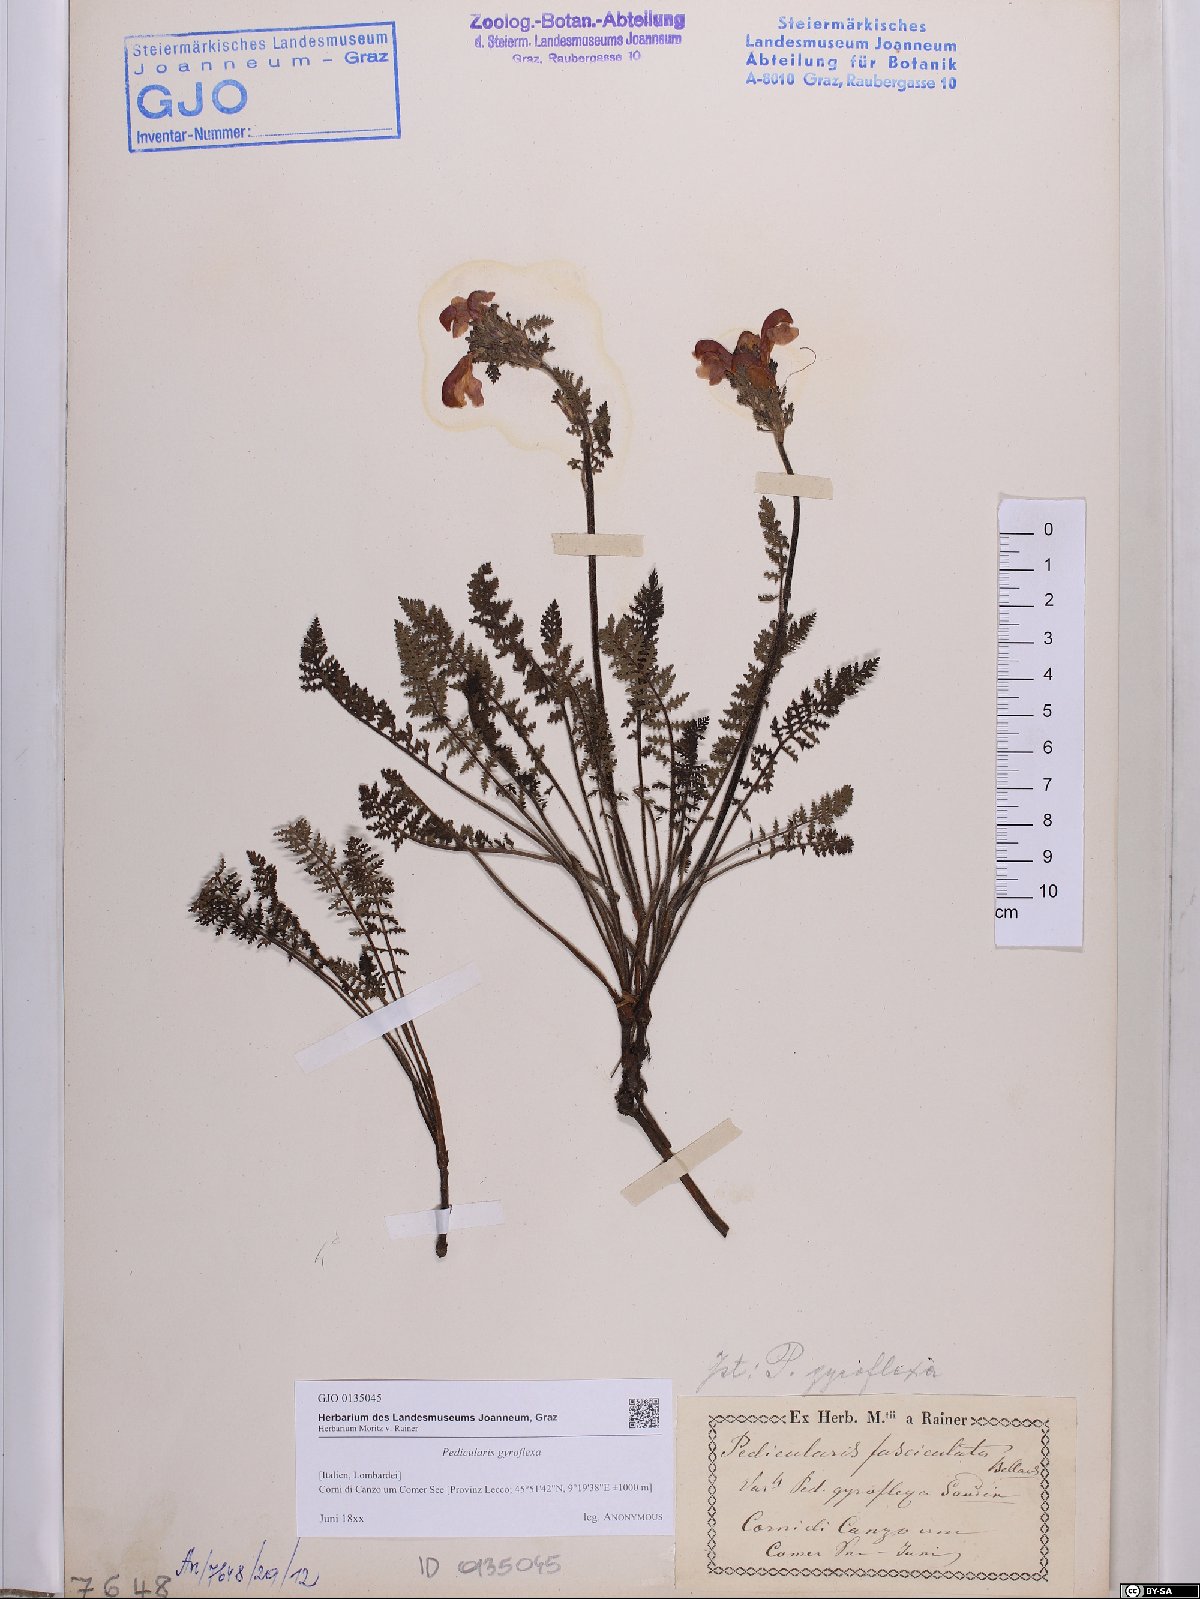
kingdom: Plantae
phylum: Tracheophyta
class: Magnoliopsida
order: Lamiales
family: Orobanchaceae
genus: Pedicularis
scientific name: Pedicularis gyroflexa
